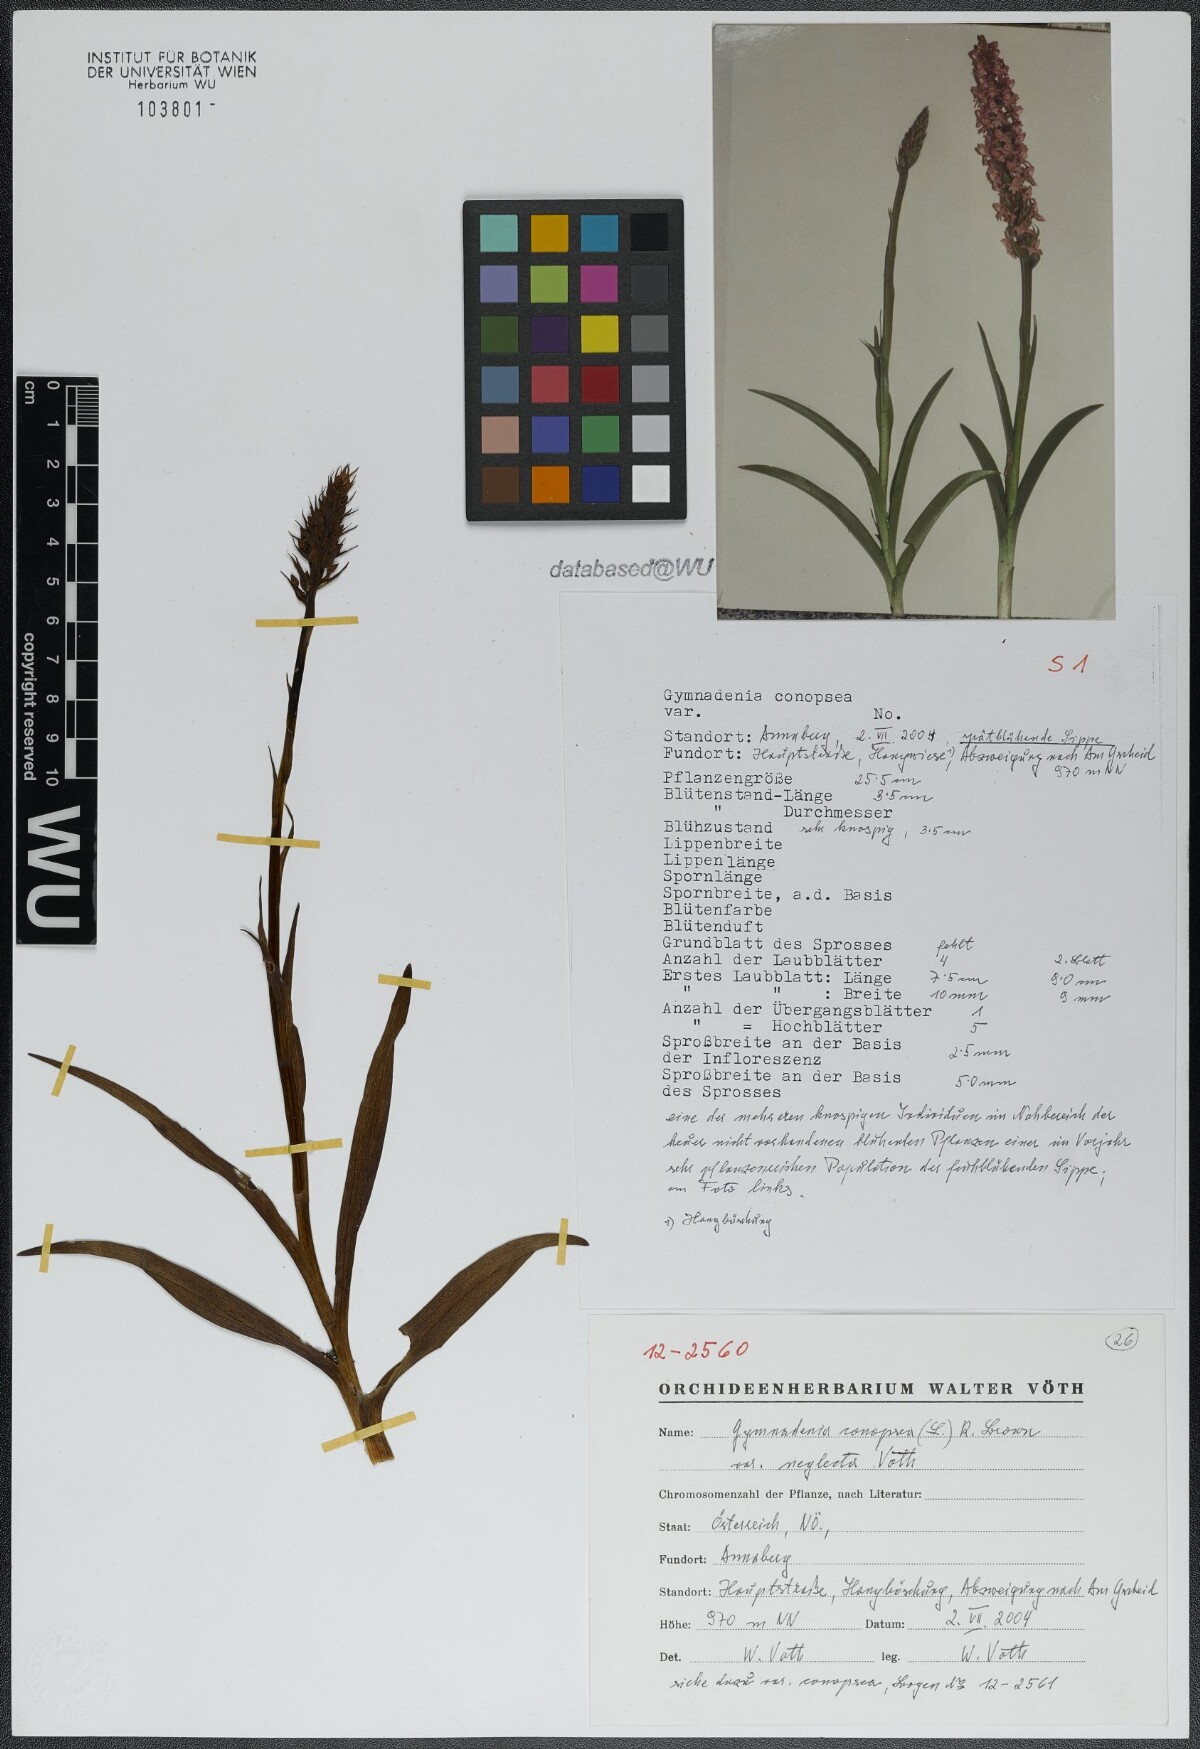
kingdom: Plantae
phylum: Tracheophyta
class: Liliopsida
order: Asparagales
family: Orchidaceae
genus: Gymnadenia
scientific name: Gymnadenia conopsea
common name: Fragrant orchid
